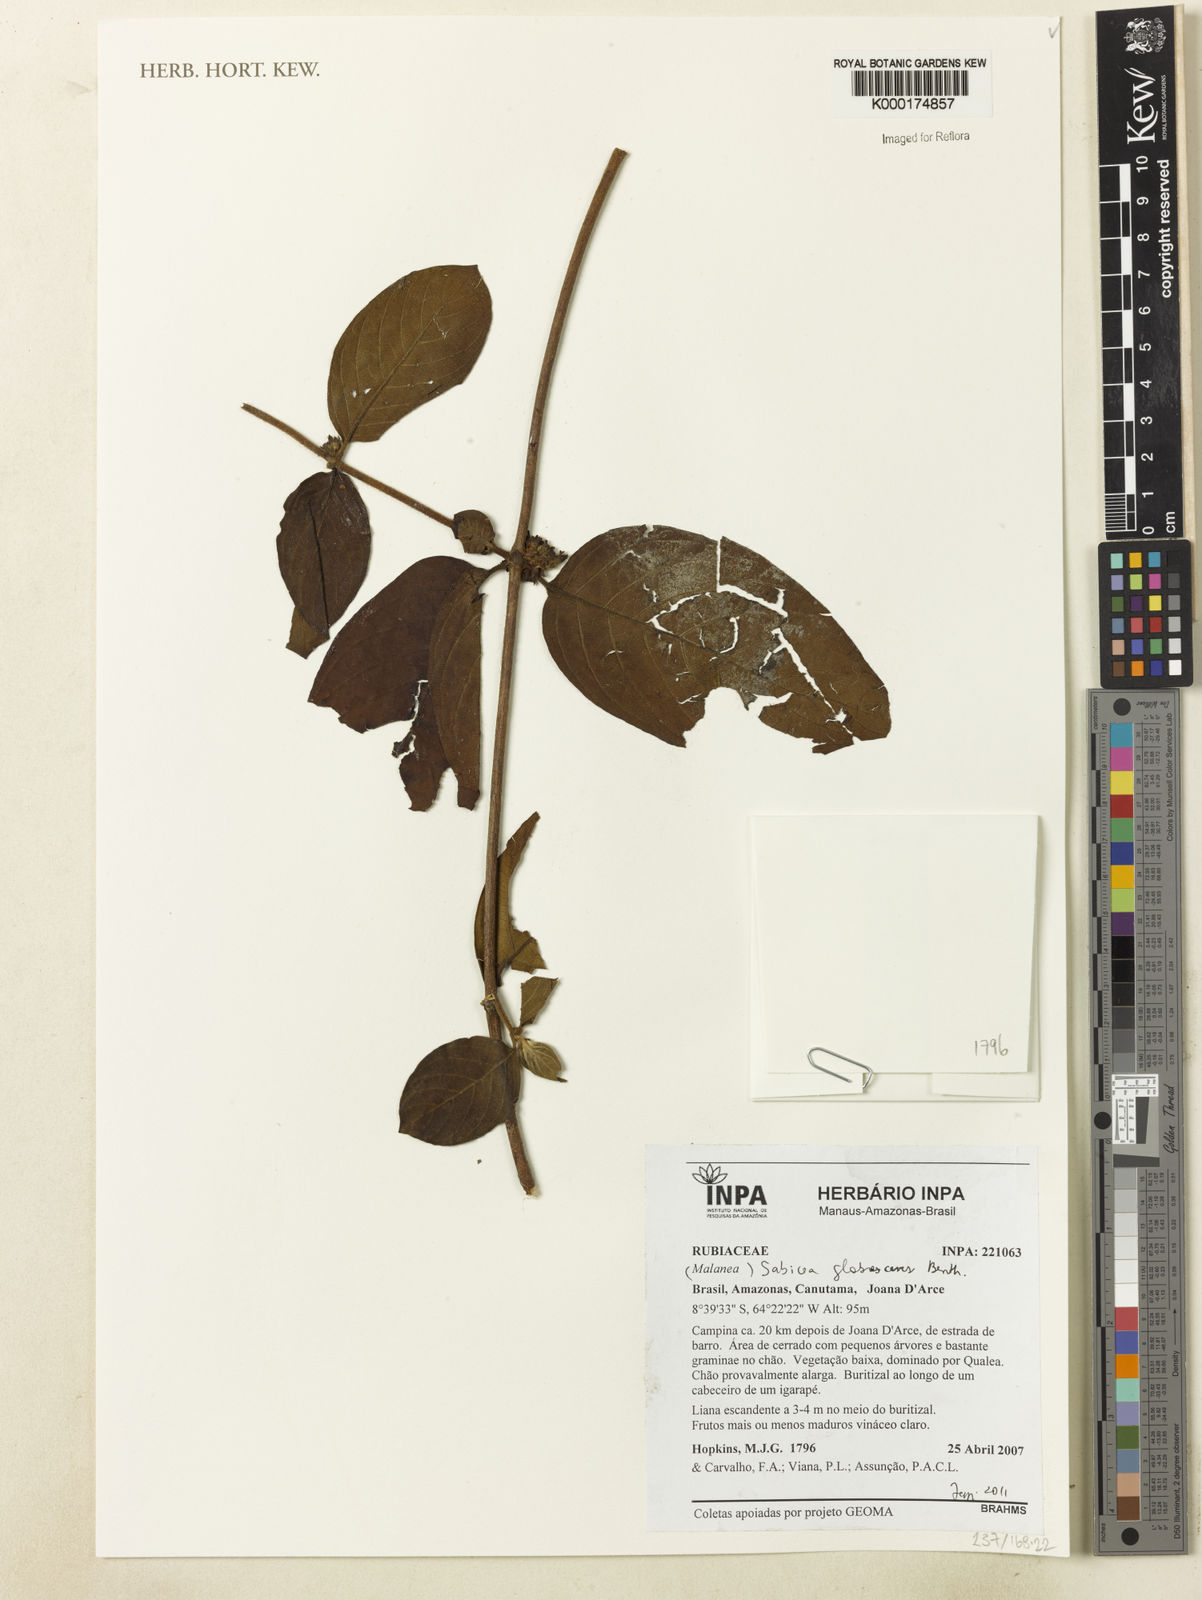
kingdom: Plantae
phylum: Tracheophyta
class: Magnoliopsida
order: Gentianales
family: Rubiaceae
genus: Sabicea
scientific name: Sabicea glabrescens
